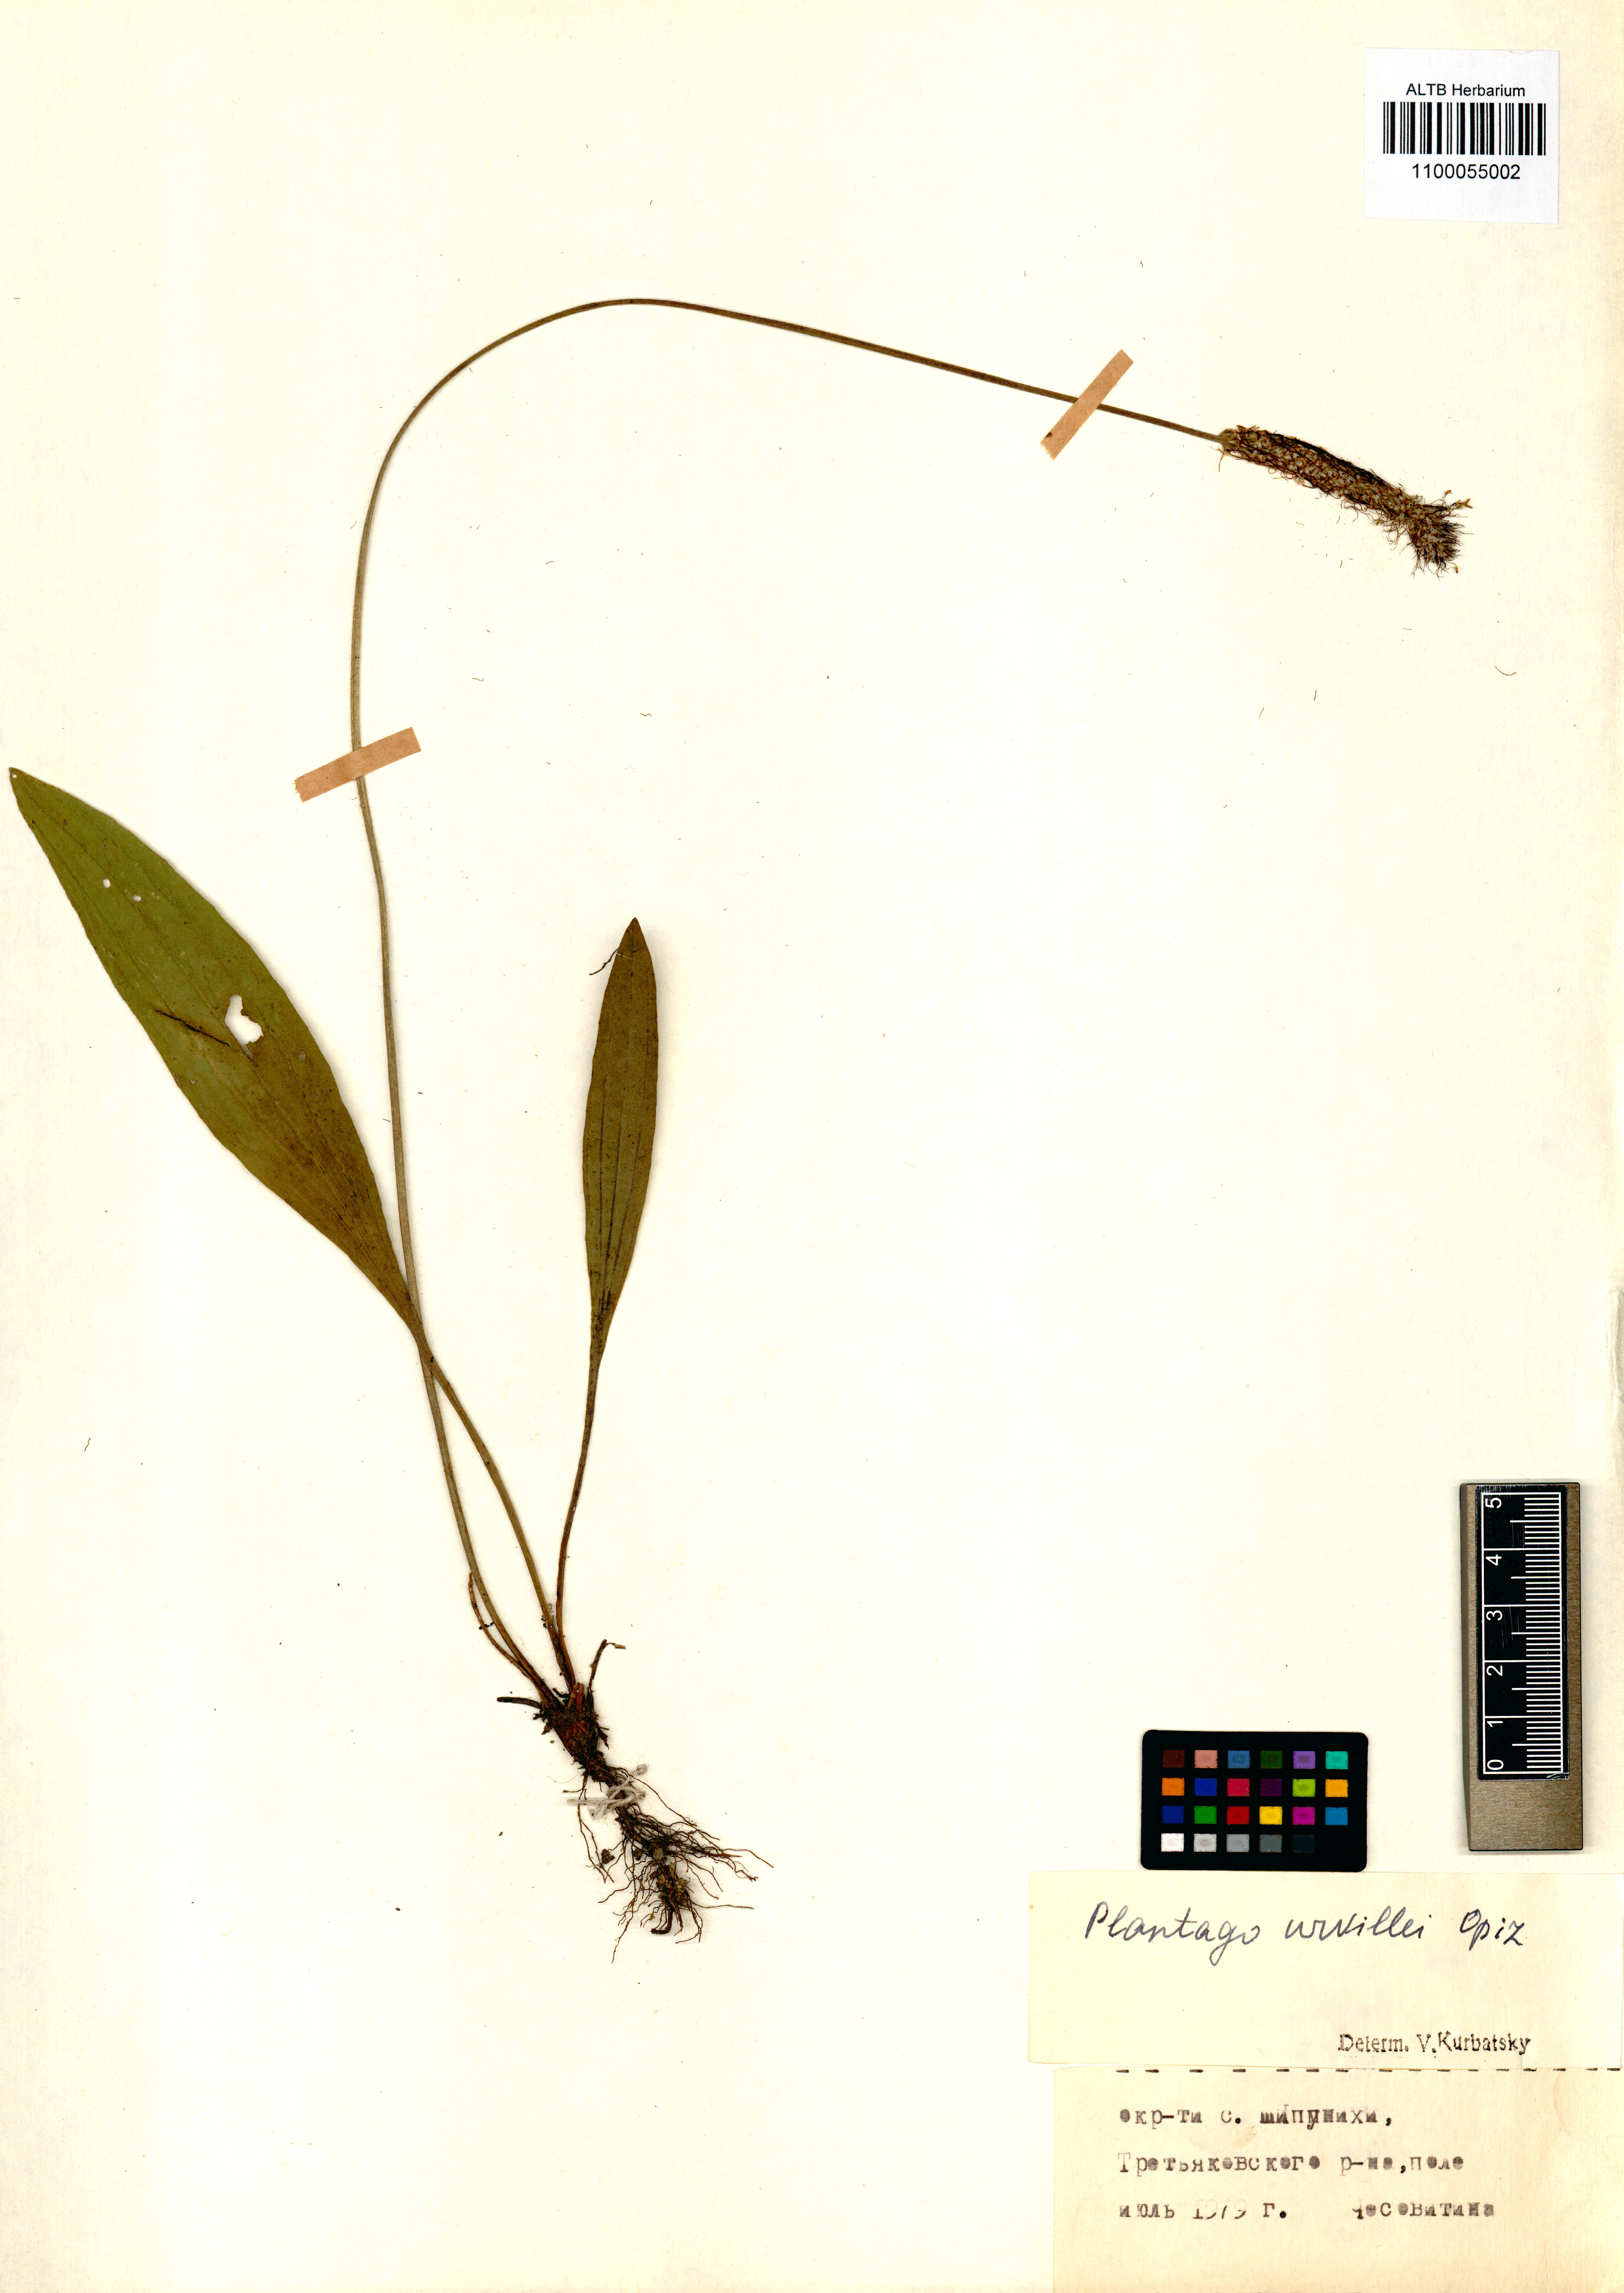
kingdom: Plantae
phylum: Tracheophyta
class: Magnoliopsida
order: Lamiales
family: Plantaginaceae
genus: Plantago
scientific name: Plantago urvillei
